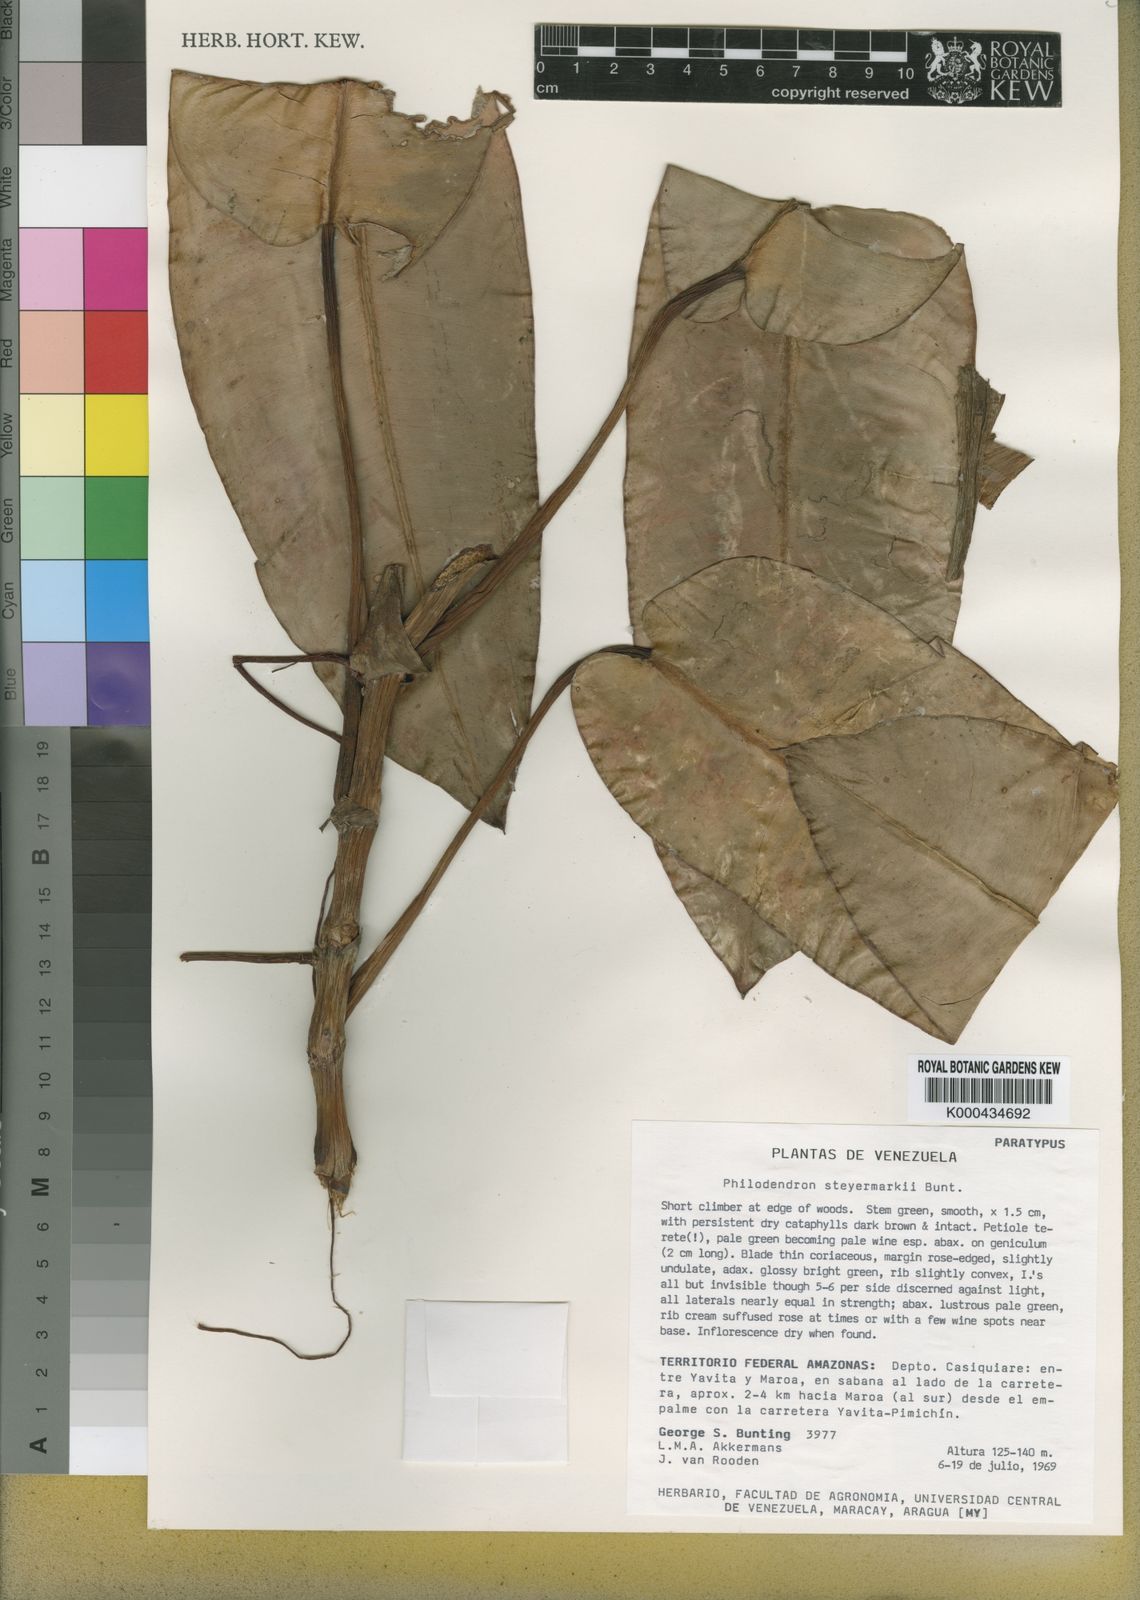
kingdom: Plantae
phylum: Tracheophyta
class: Liliopsida
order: Alismatales
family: Araceae
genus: Philodendron
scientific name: Philodendron steyermarkii
